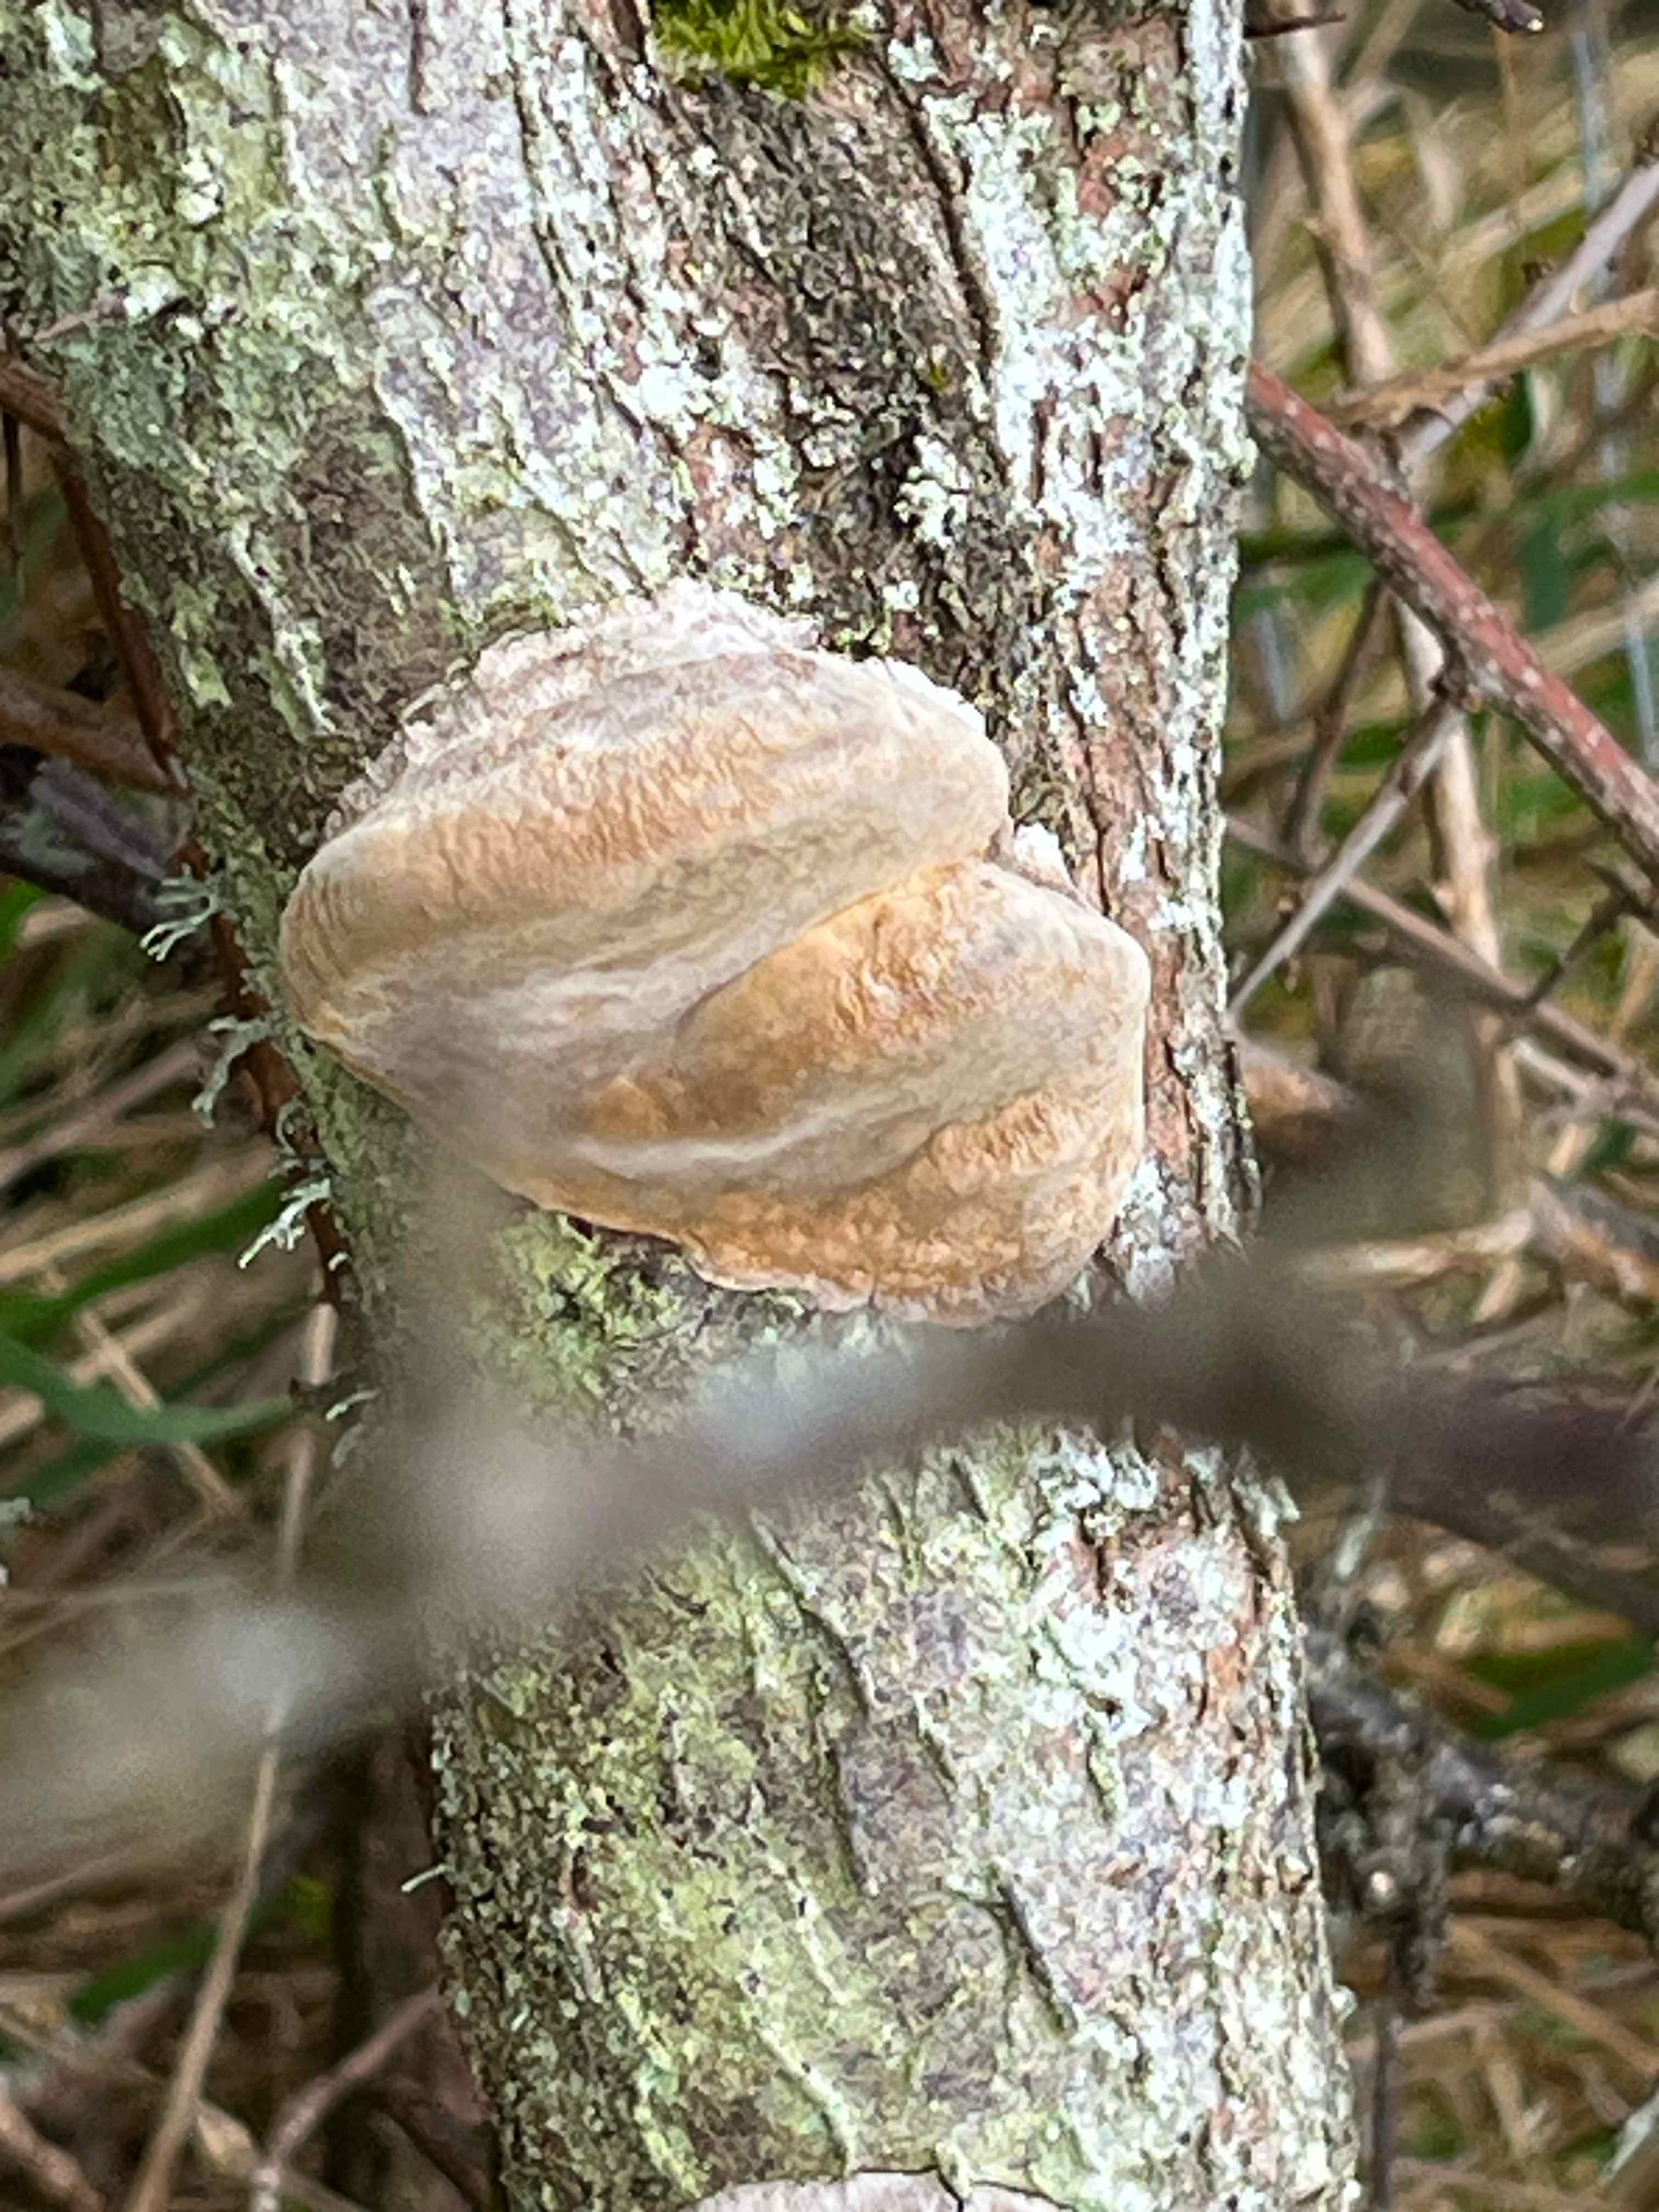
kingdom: Fungi
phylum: Basidiomycota
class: Agaricomycetes
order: Hymenochaetales
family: Hymenochaetaceae
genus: Phellinus
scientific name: Phellinus pomaceus
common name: blomme-ildporesvamp
